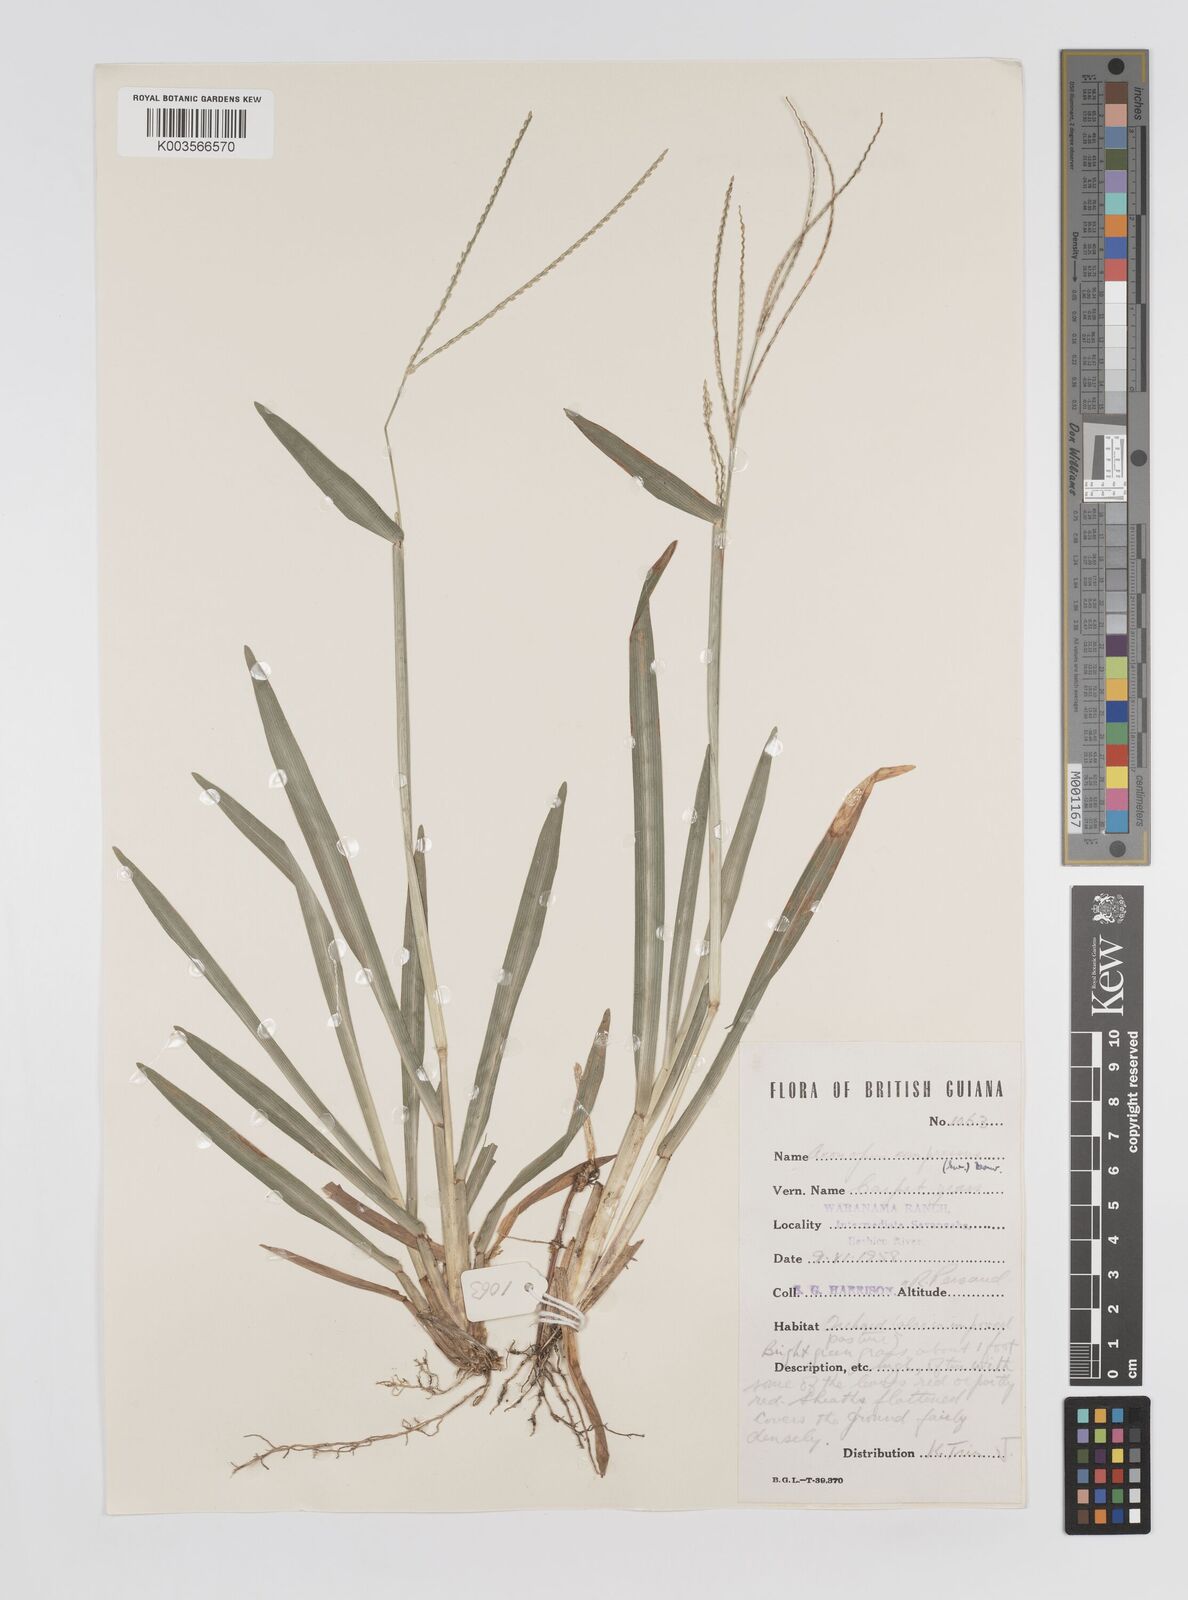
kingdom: Plantae
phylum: Tracheophyta
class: Liliopsida
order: Poales
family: Poaceae
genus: Axonopus
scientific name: Axonopus compressus
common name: American carpet grass
